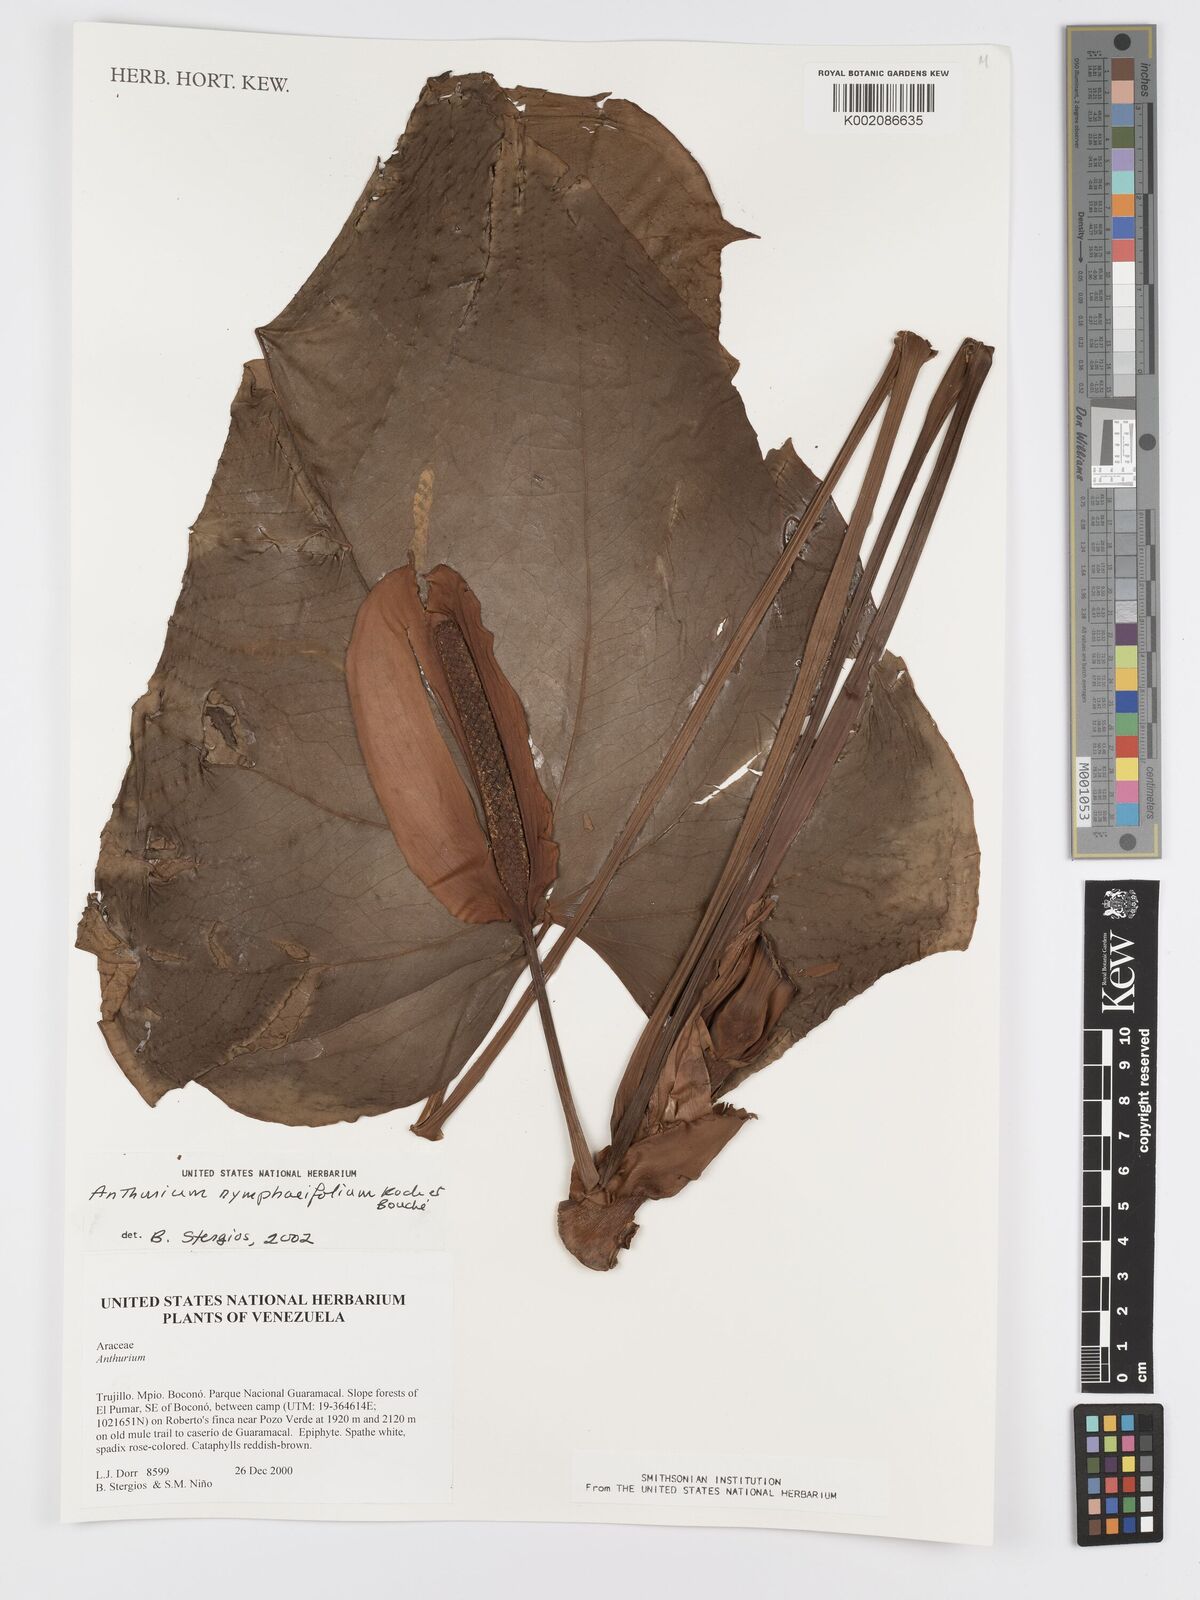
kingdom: Plantae
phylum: Tracheophyta
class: Liliopsida
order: Alismatales
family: Araceae
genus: Anthurium
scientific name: Anthurium nymphaeifolium
